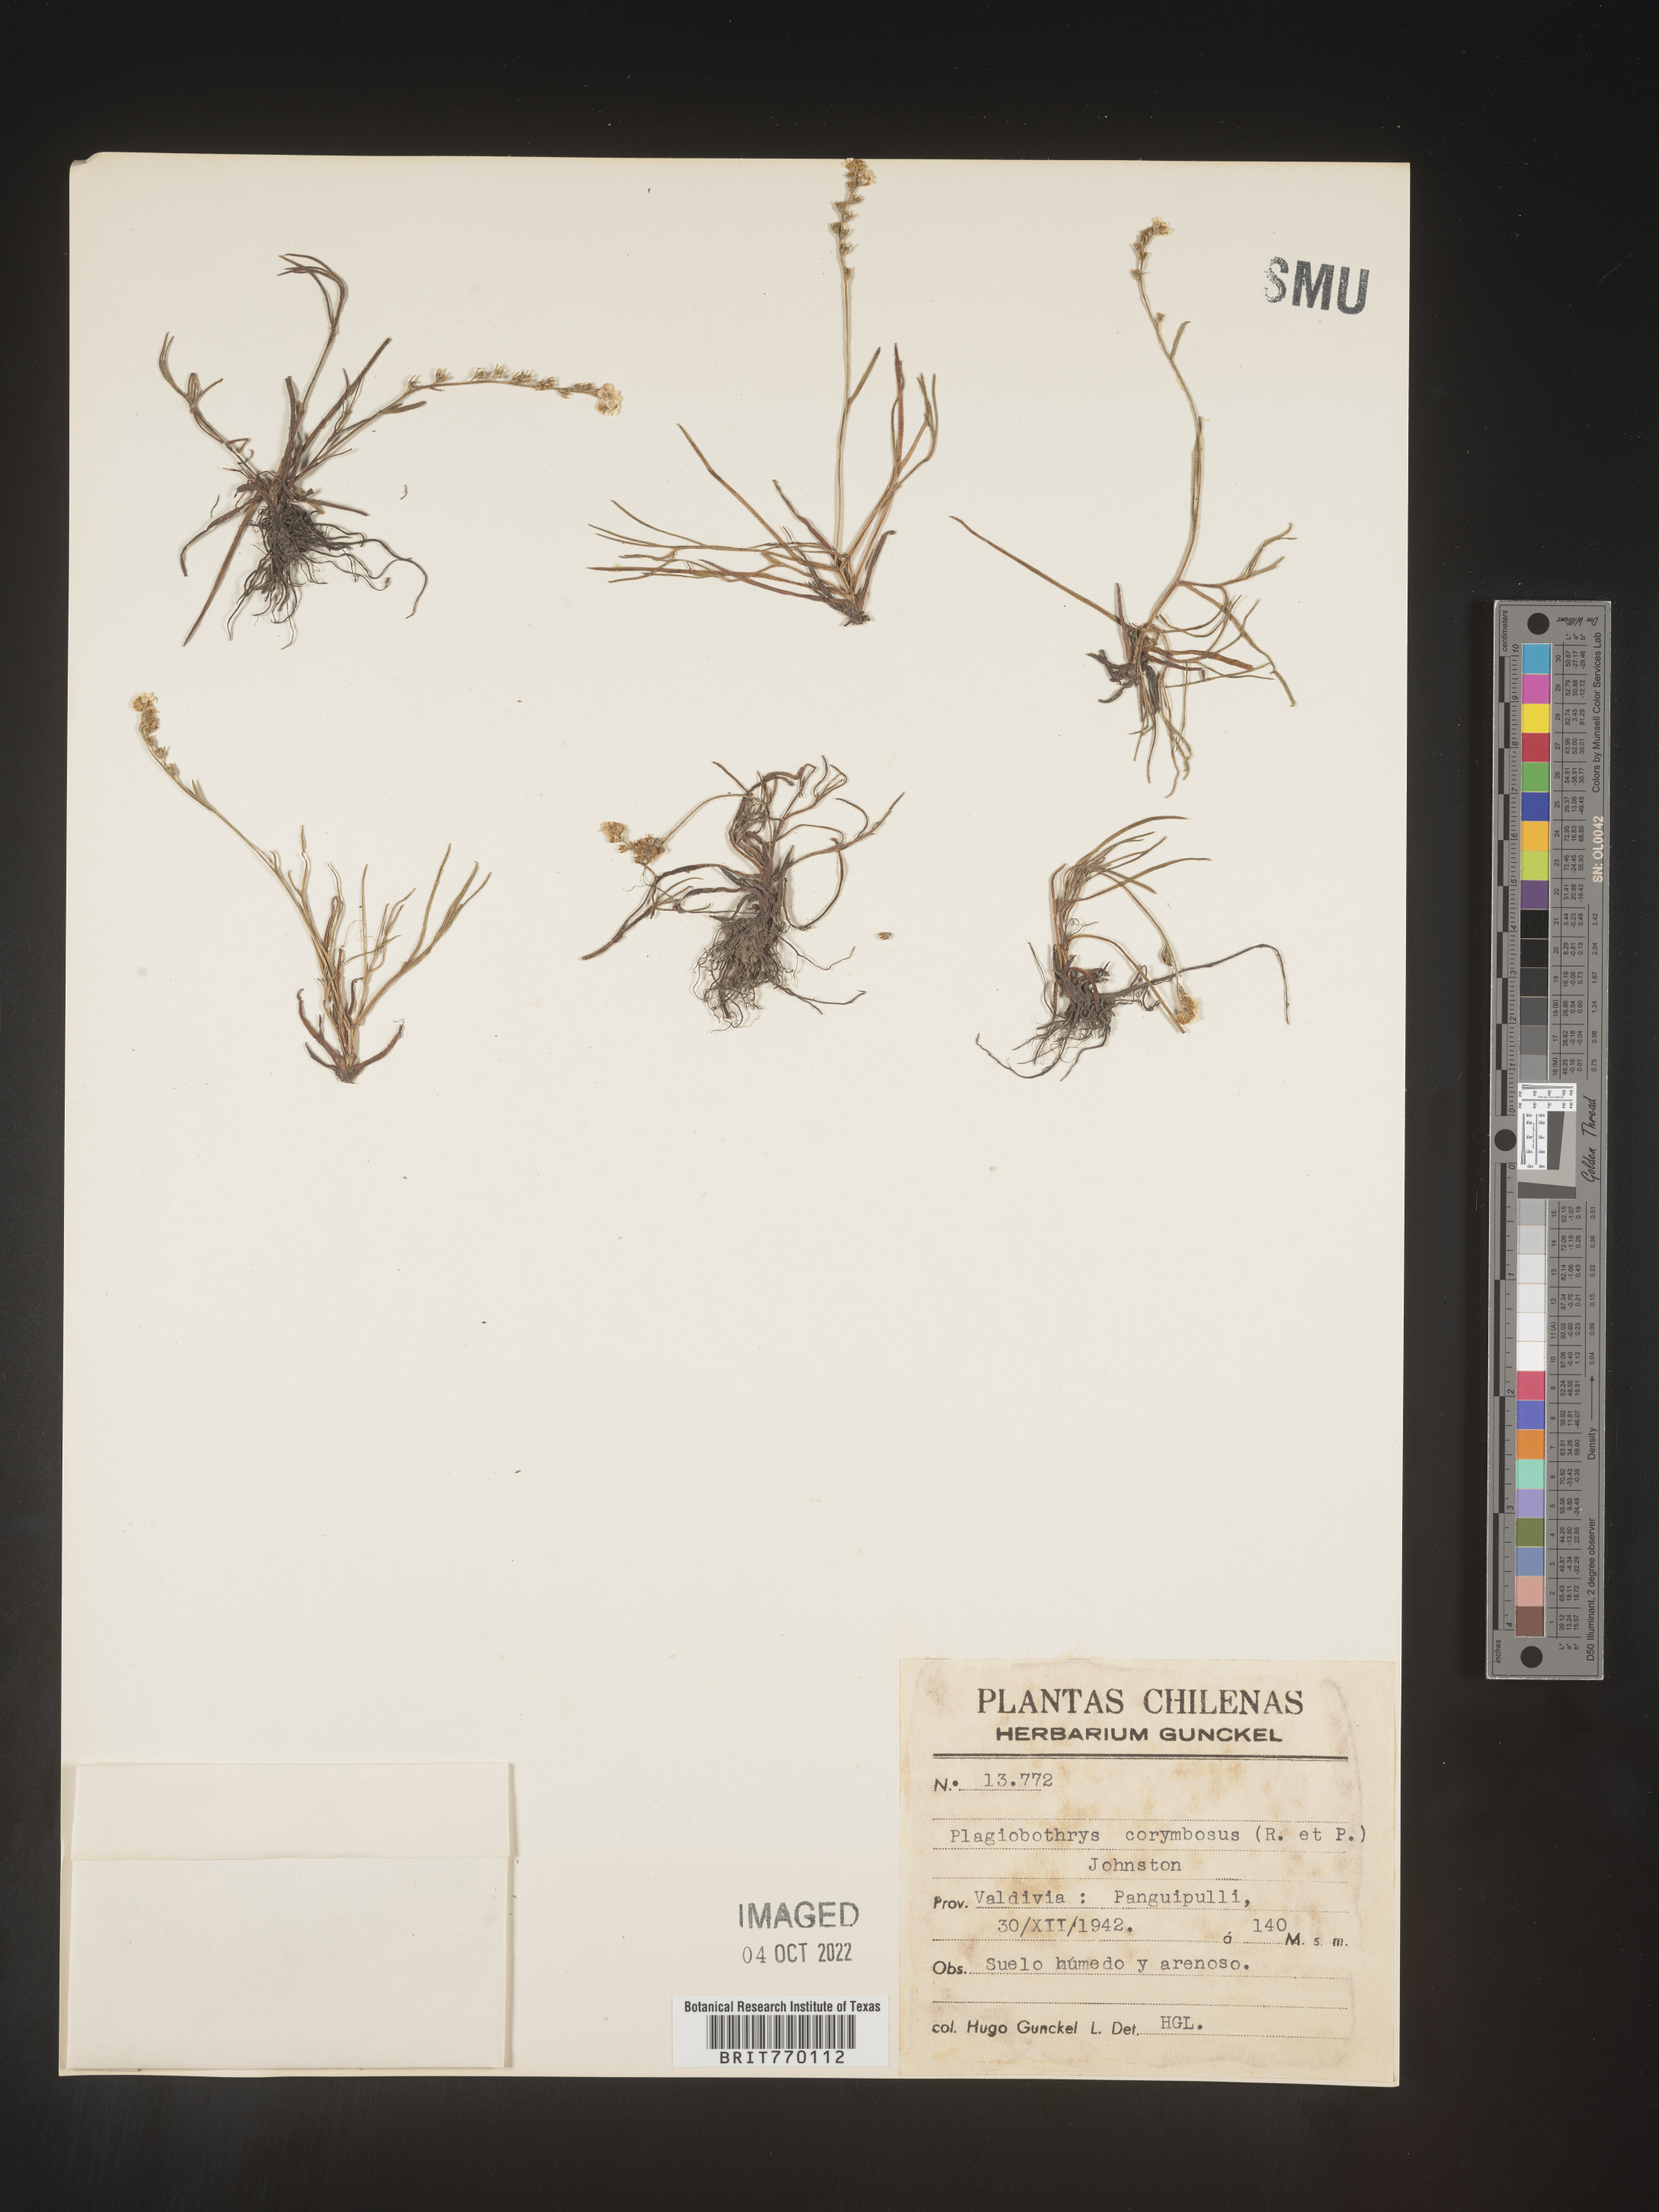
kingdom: Plantae
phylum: Tracheophyta
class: Magnoliopsida
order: Boraginales
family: Boraginaceae
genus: Plagiobothrys
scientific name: Plagiobothrys
